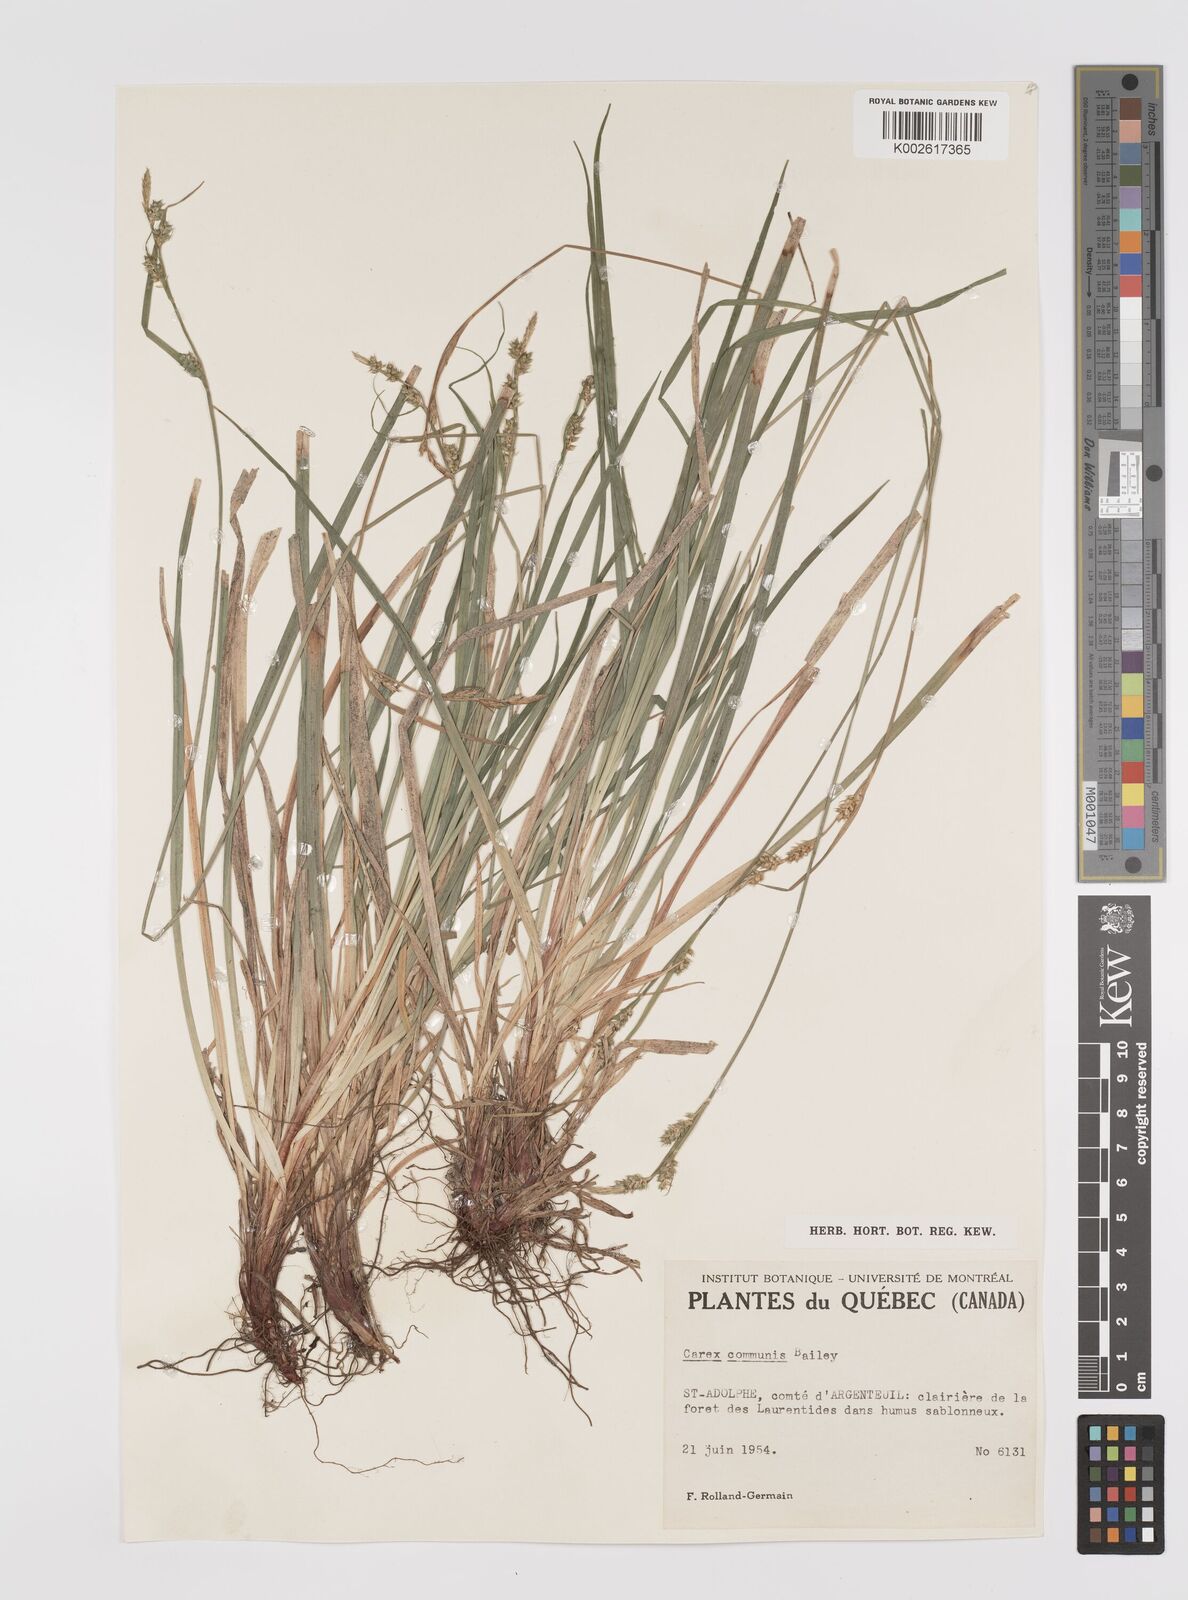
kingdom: Plantae
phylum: Tracheophyta
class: Liliopsida
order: Poales
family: Cyperaceae
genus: Carex
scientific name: Carex communis
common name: Colonial oak sedge
